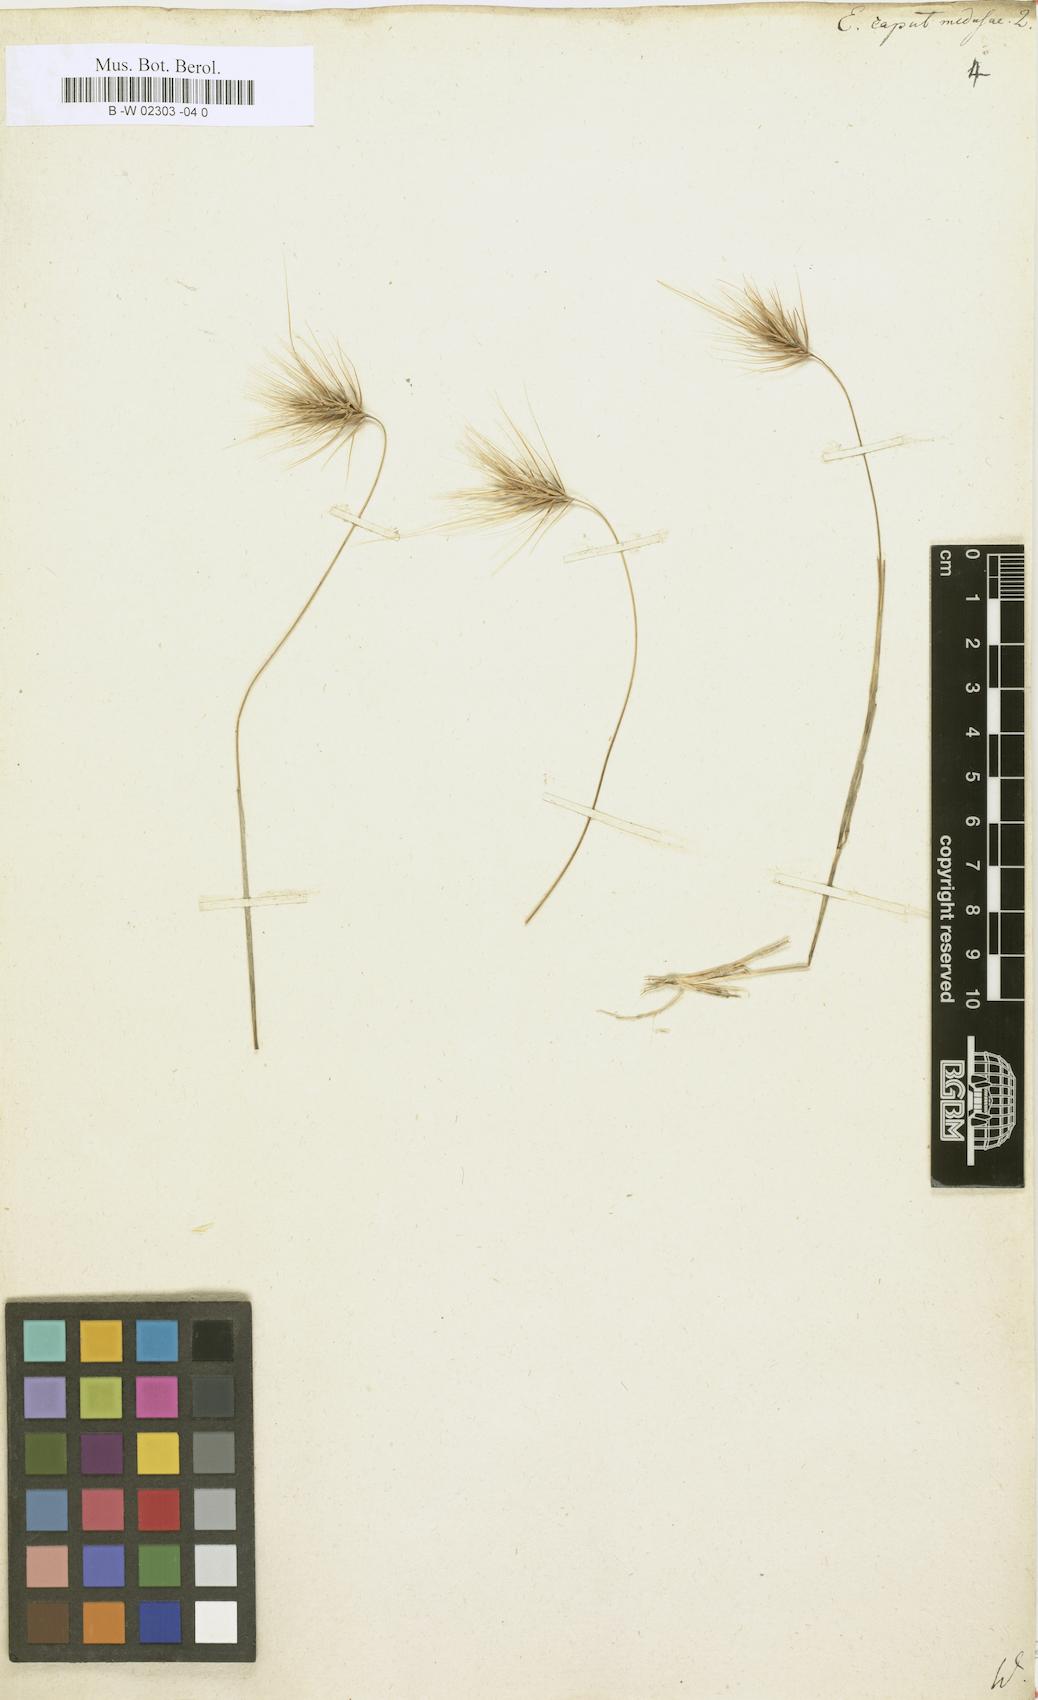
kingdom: Plantae
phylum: Tracheophyta
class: Liliopsida
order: Poales
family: Poaceae
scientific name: Poaceae
